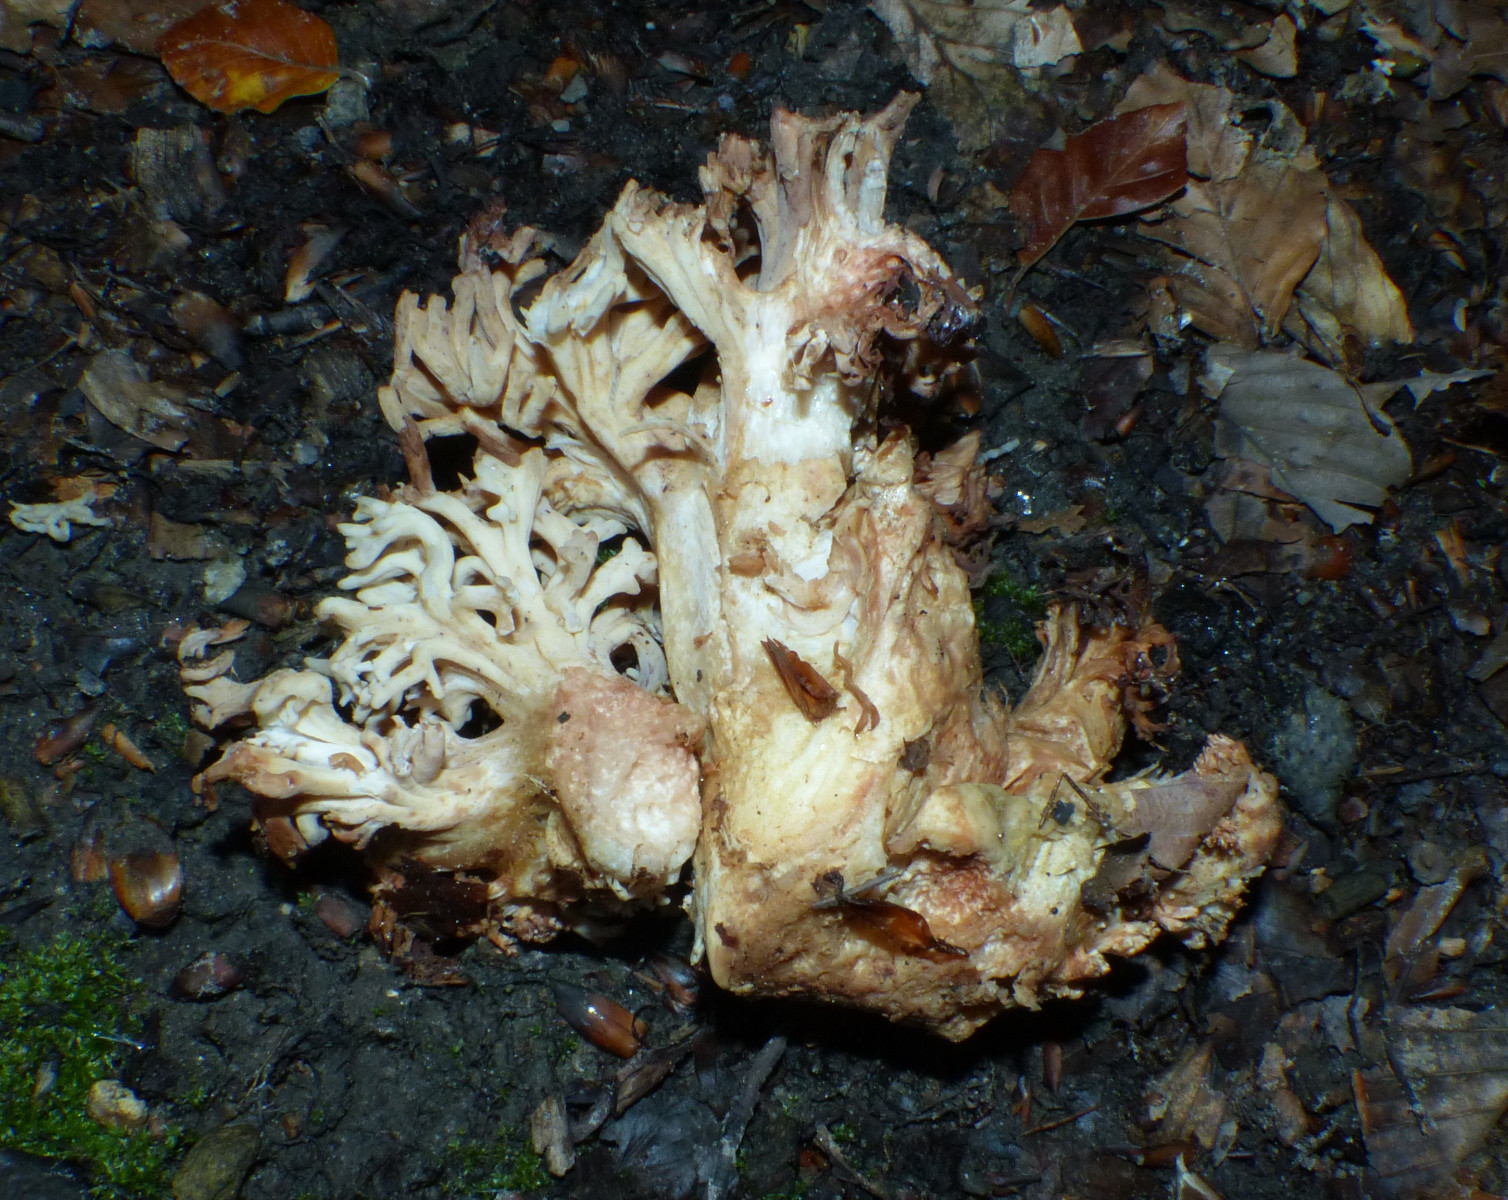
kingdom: Fungi
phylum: Basidiomycota
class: Agaricomycetes
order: Gomphales
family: Gomphaceae
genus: Ramaria
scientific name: Ramaria
